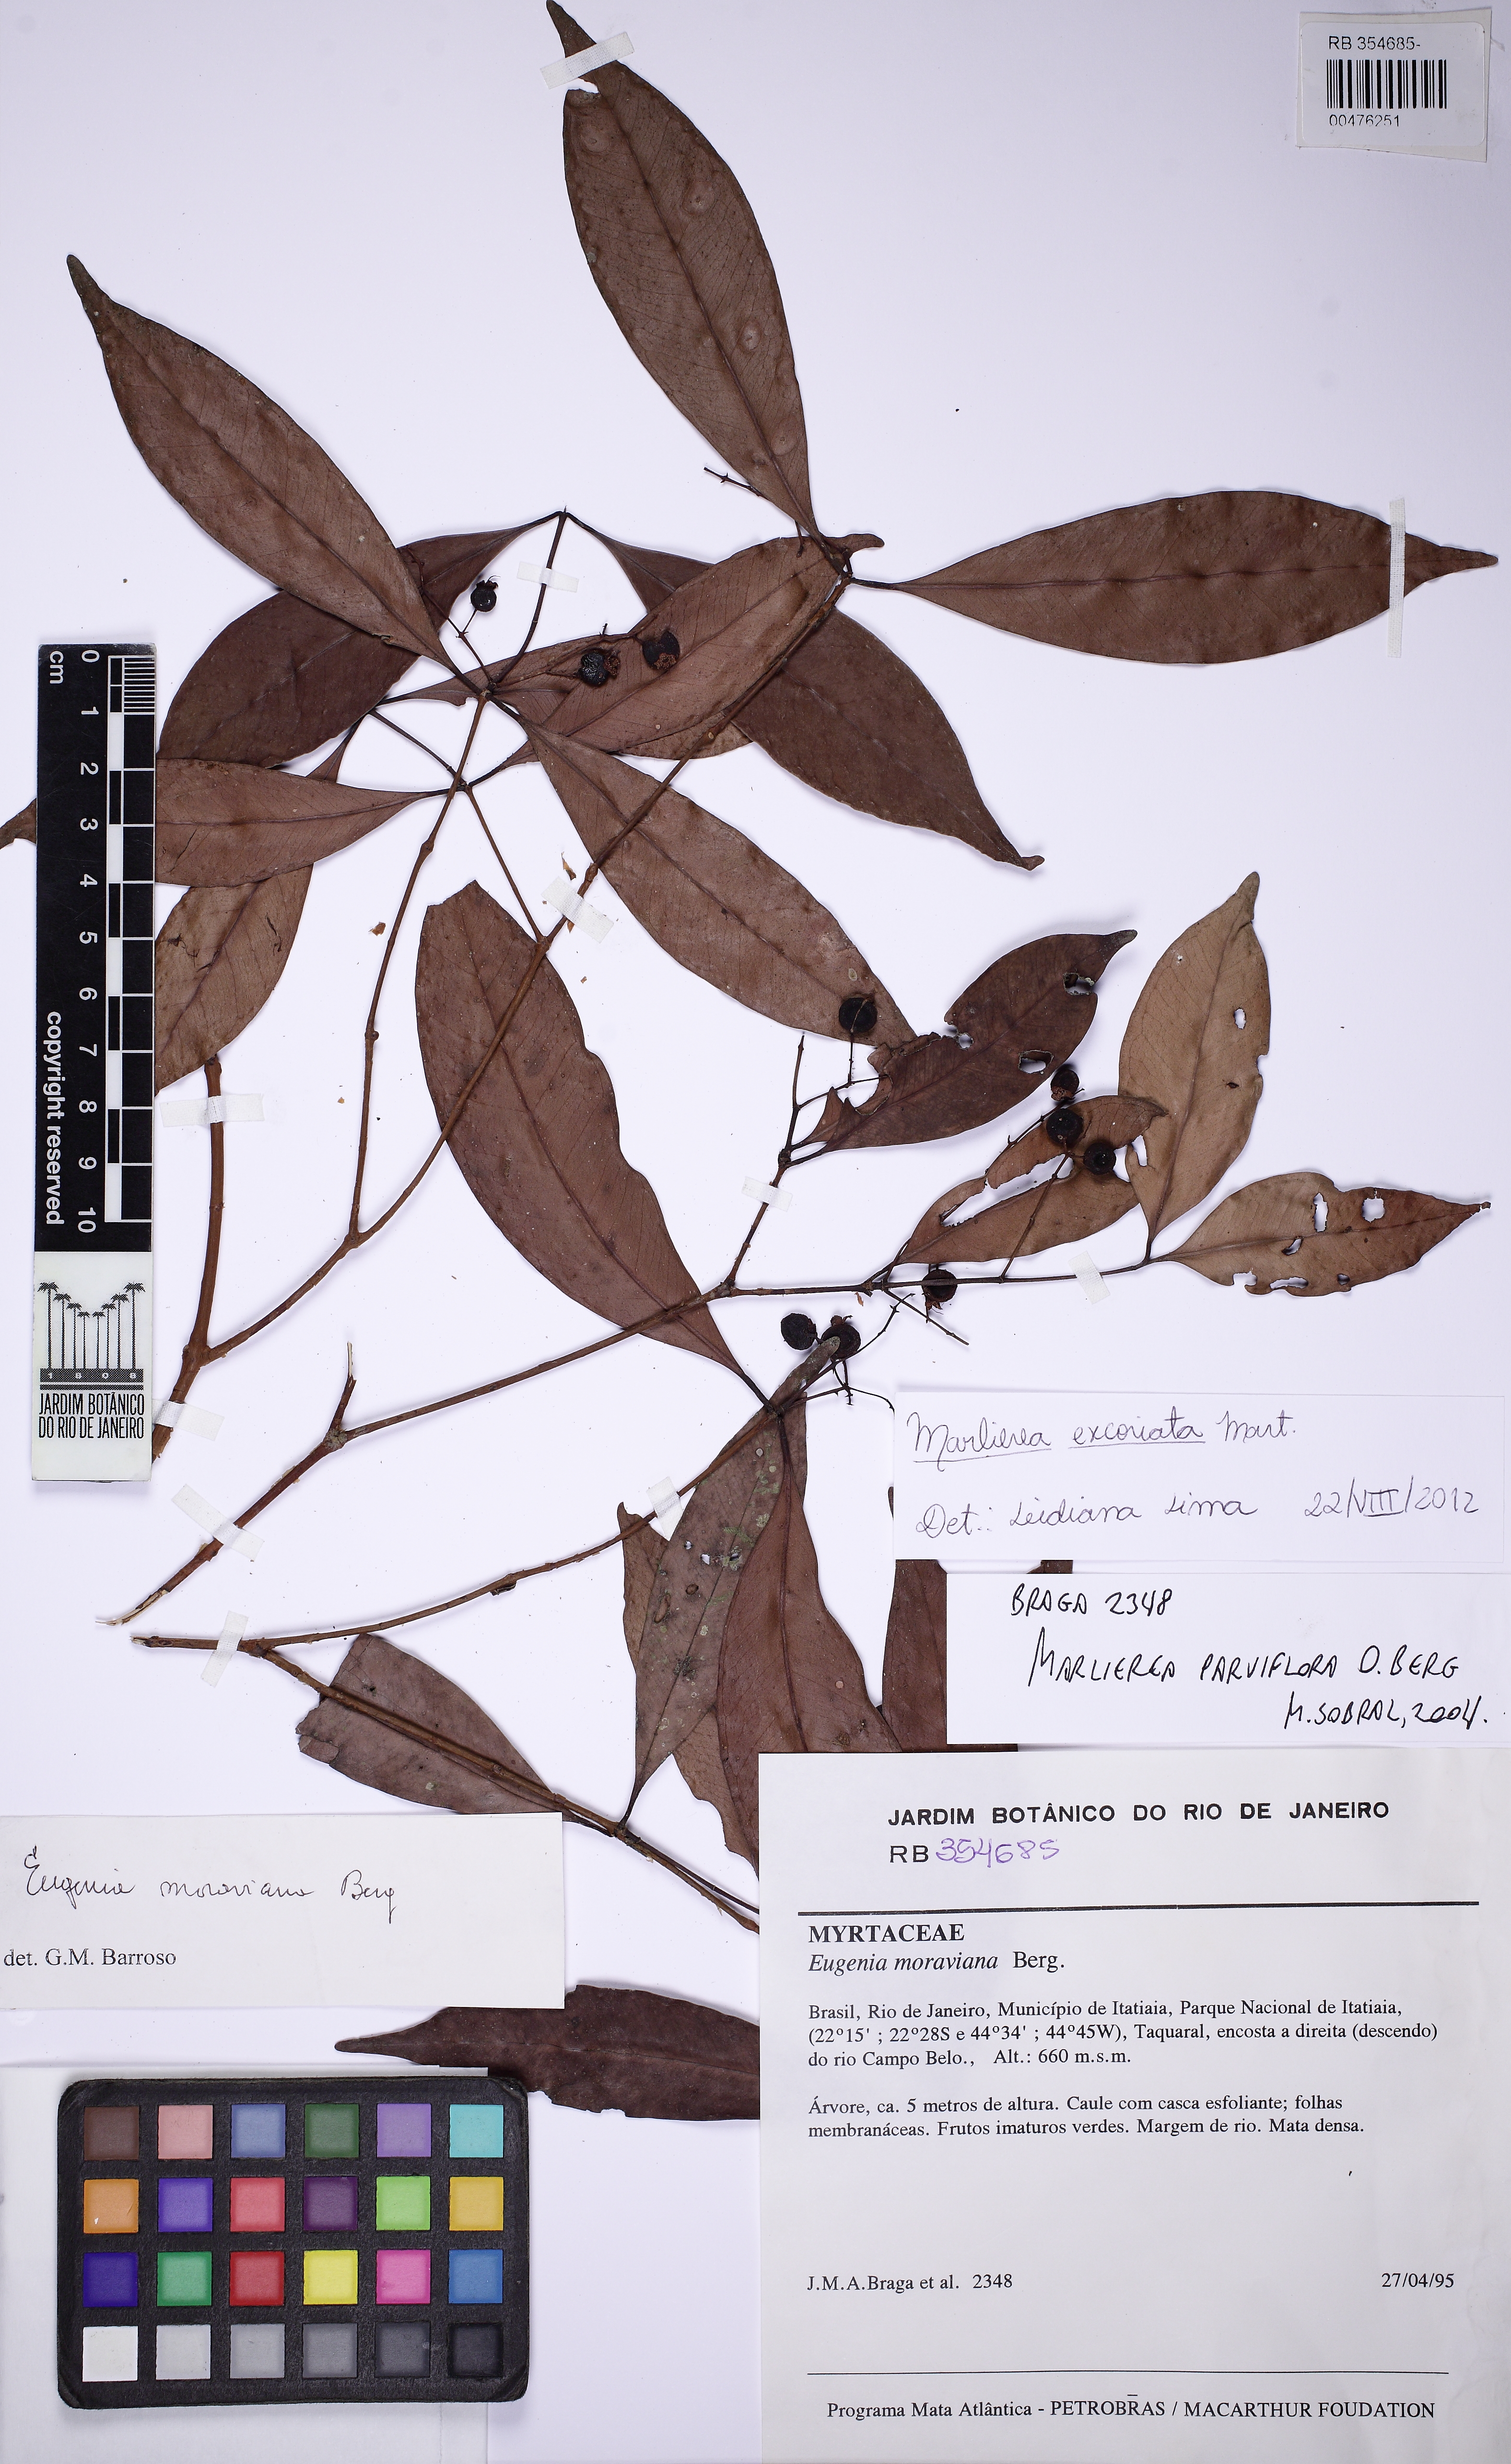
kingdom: Plantae
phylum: Tracheophyta
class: Magnoliopsida
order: Myrtales
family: Myrtaceae
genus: Myrcia
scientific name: Myrcia excoriata
